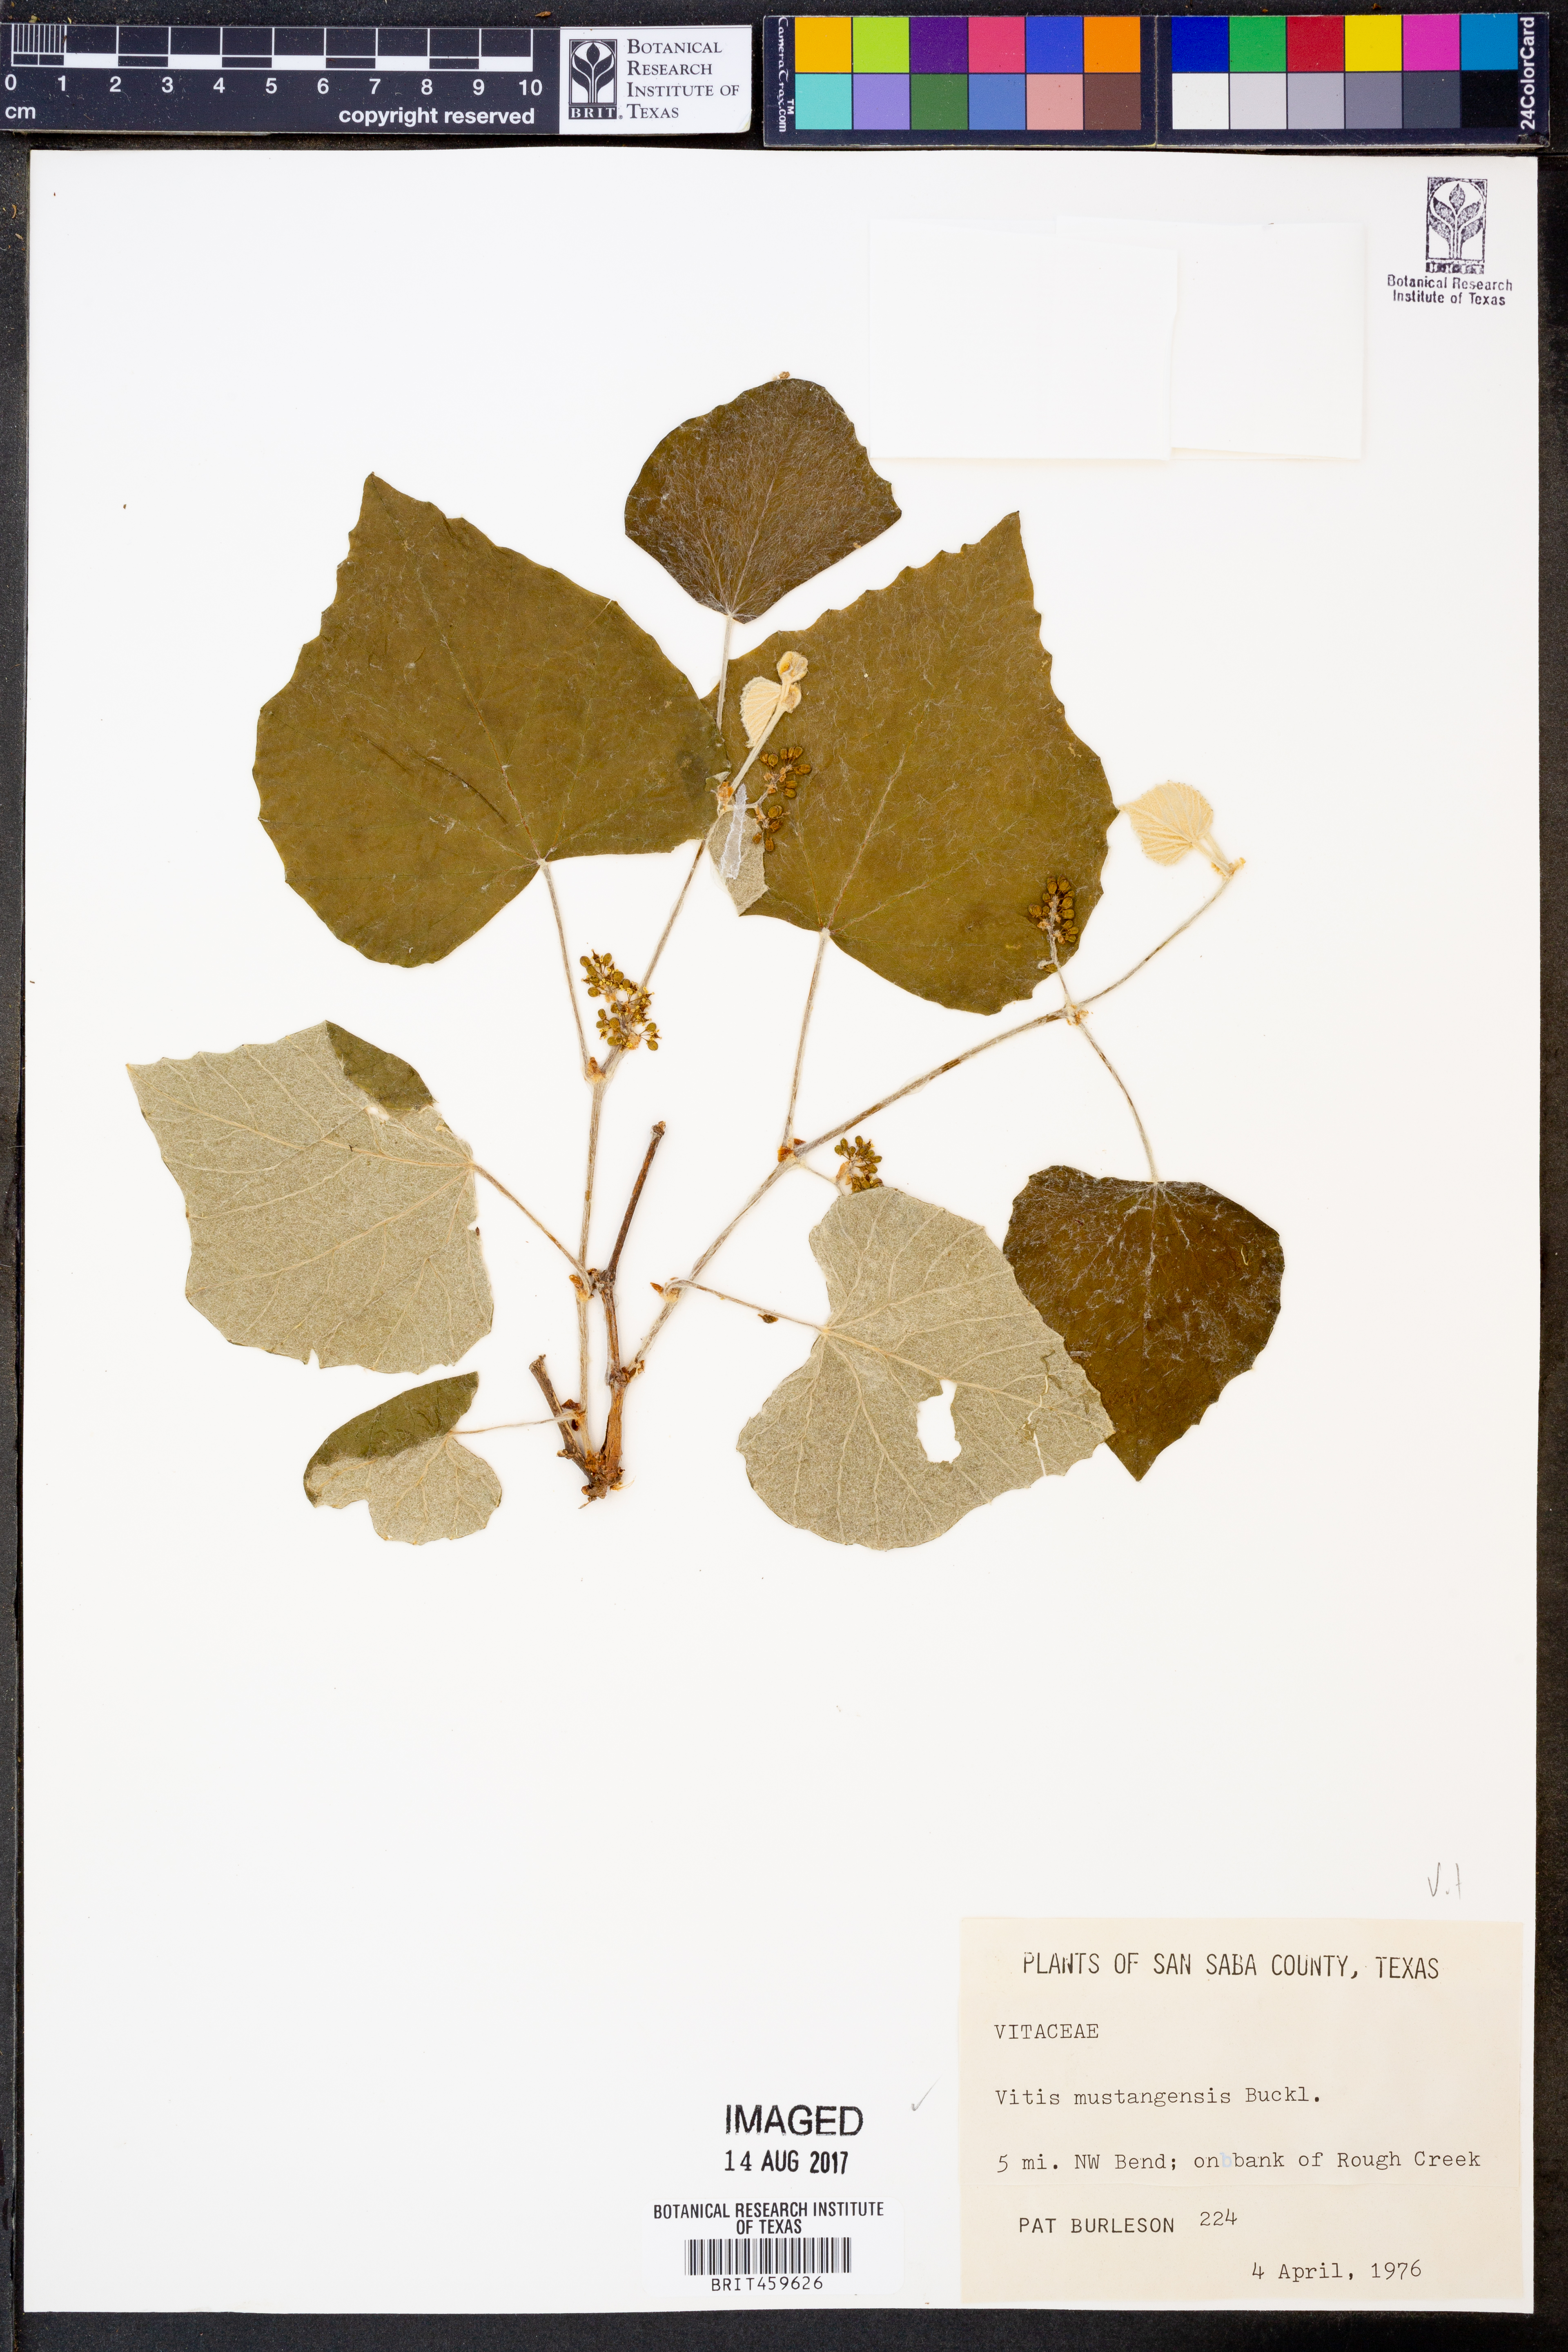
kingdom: Plantae
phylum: Tracheophyta
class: Magnoliopsida
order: Vitales
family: Vitaceae
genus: Vitis
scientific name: Vitis mustangensis
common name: Mustang grape
